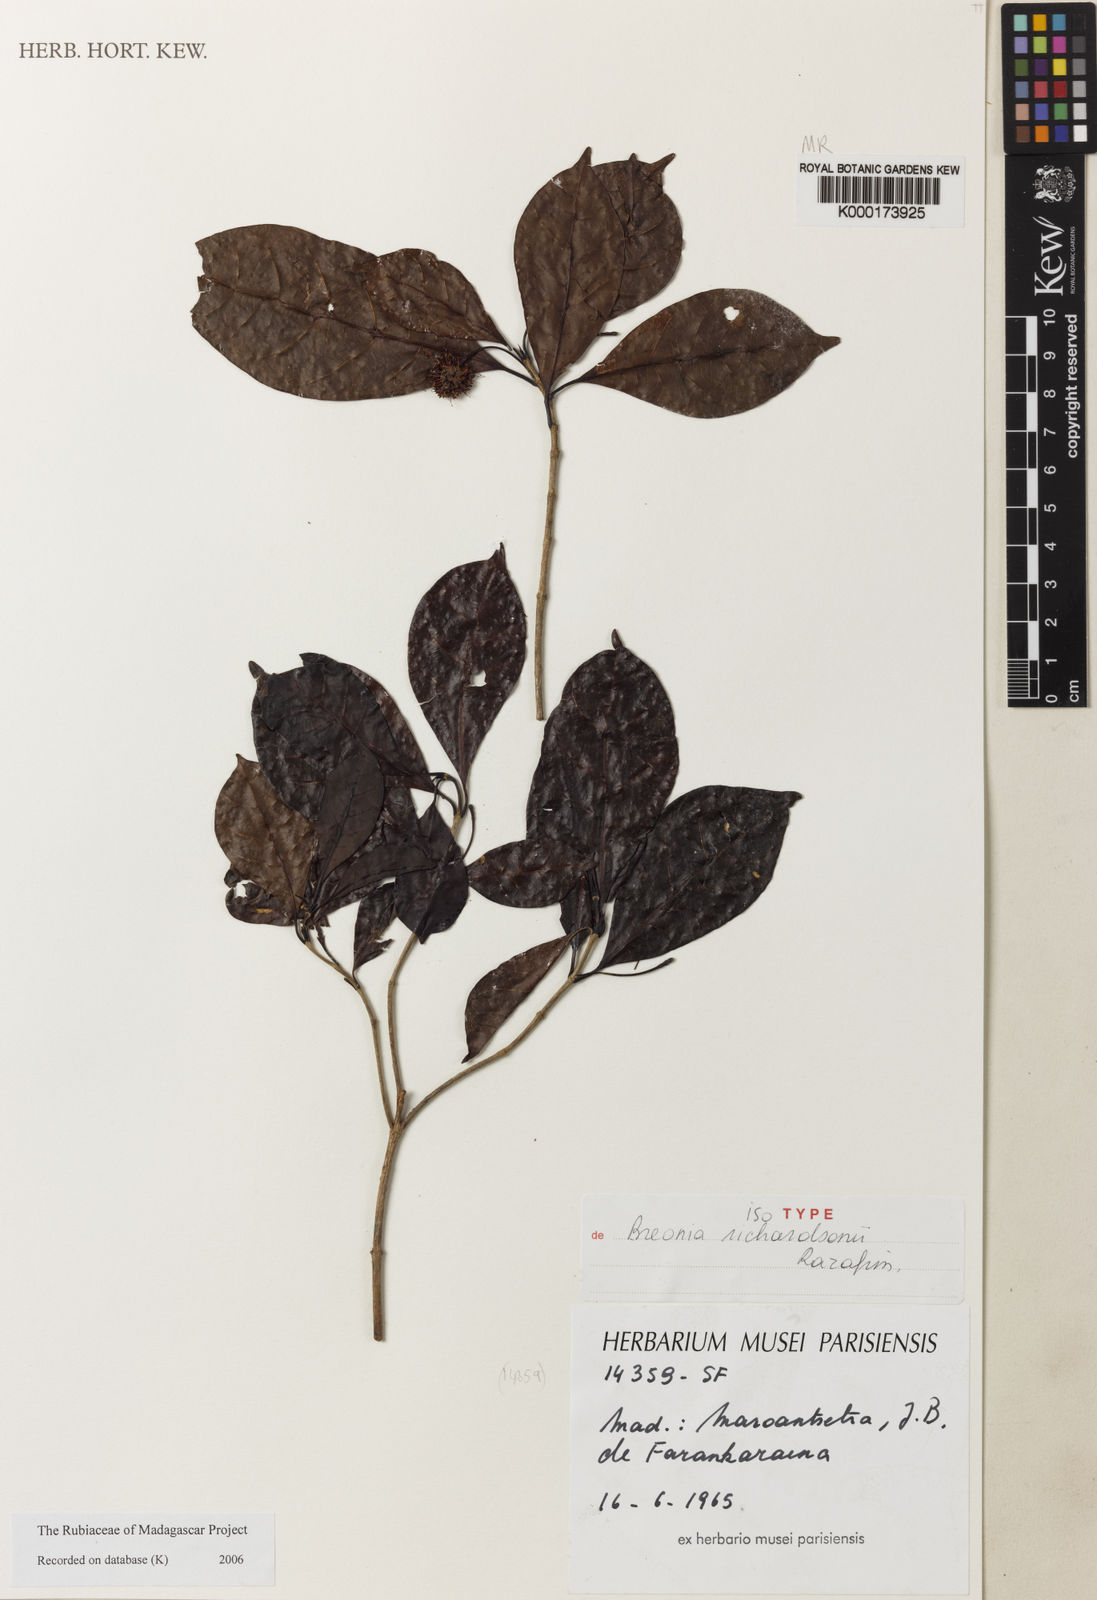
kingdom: Plantae
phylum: Tracheophyta
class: Magnoliopsida
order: Gentianales
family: Rubiaceae
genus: Breonia
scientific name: Breonia richardsonii
